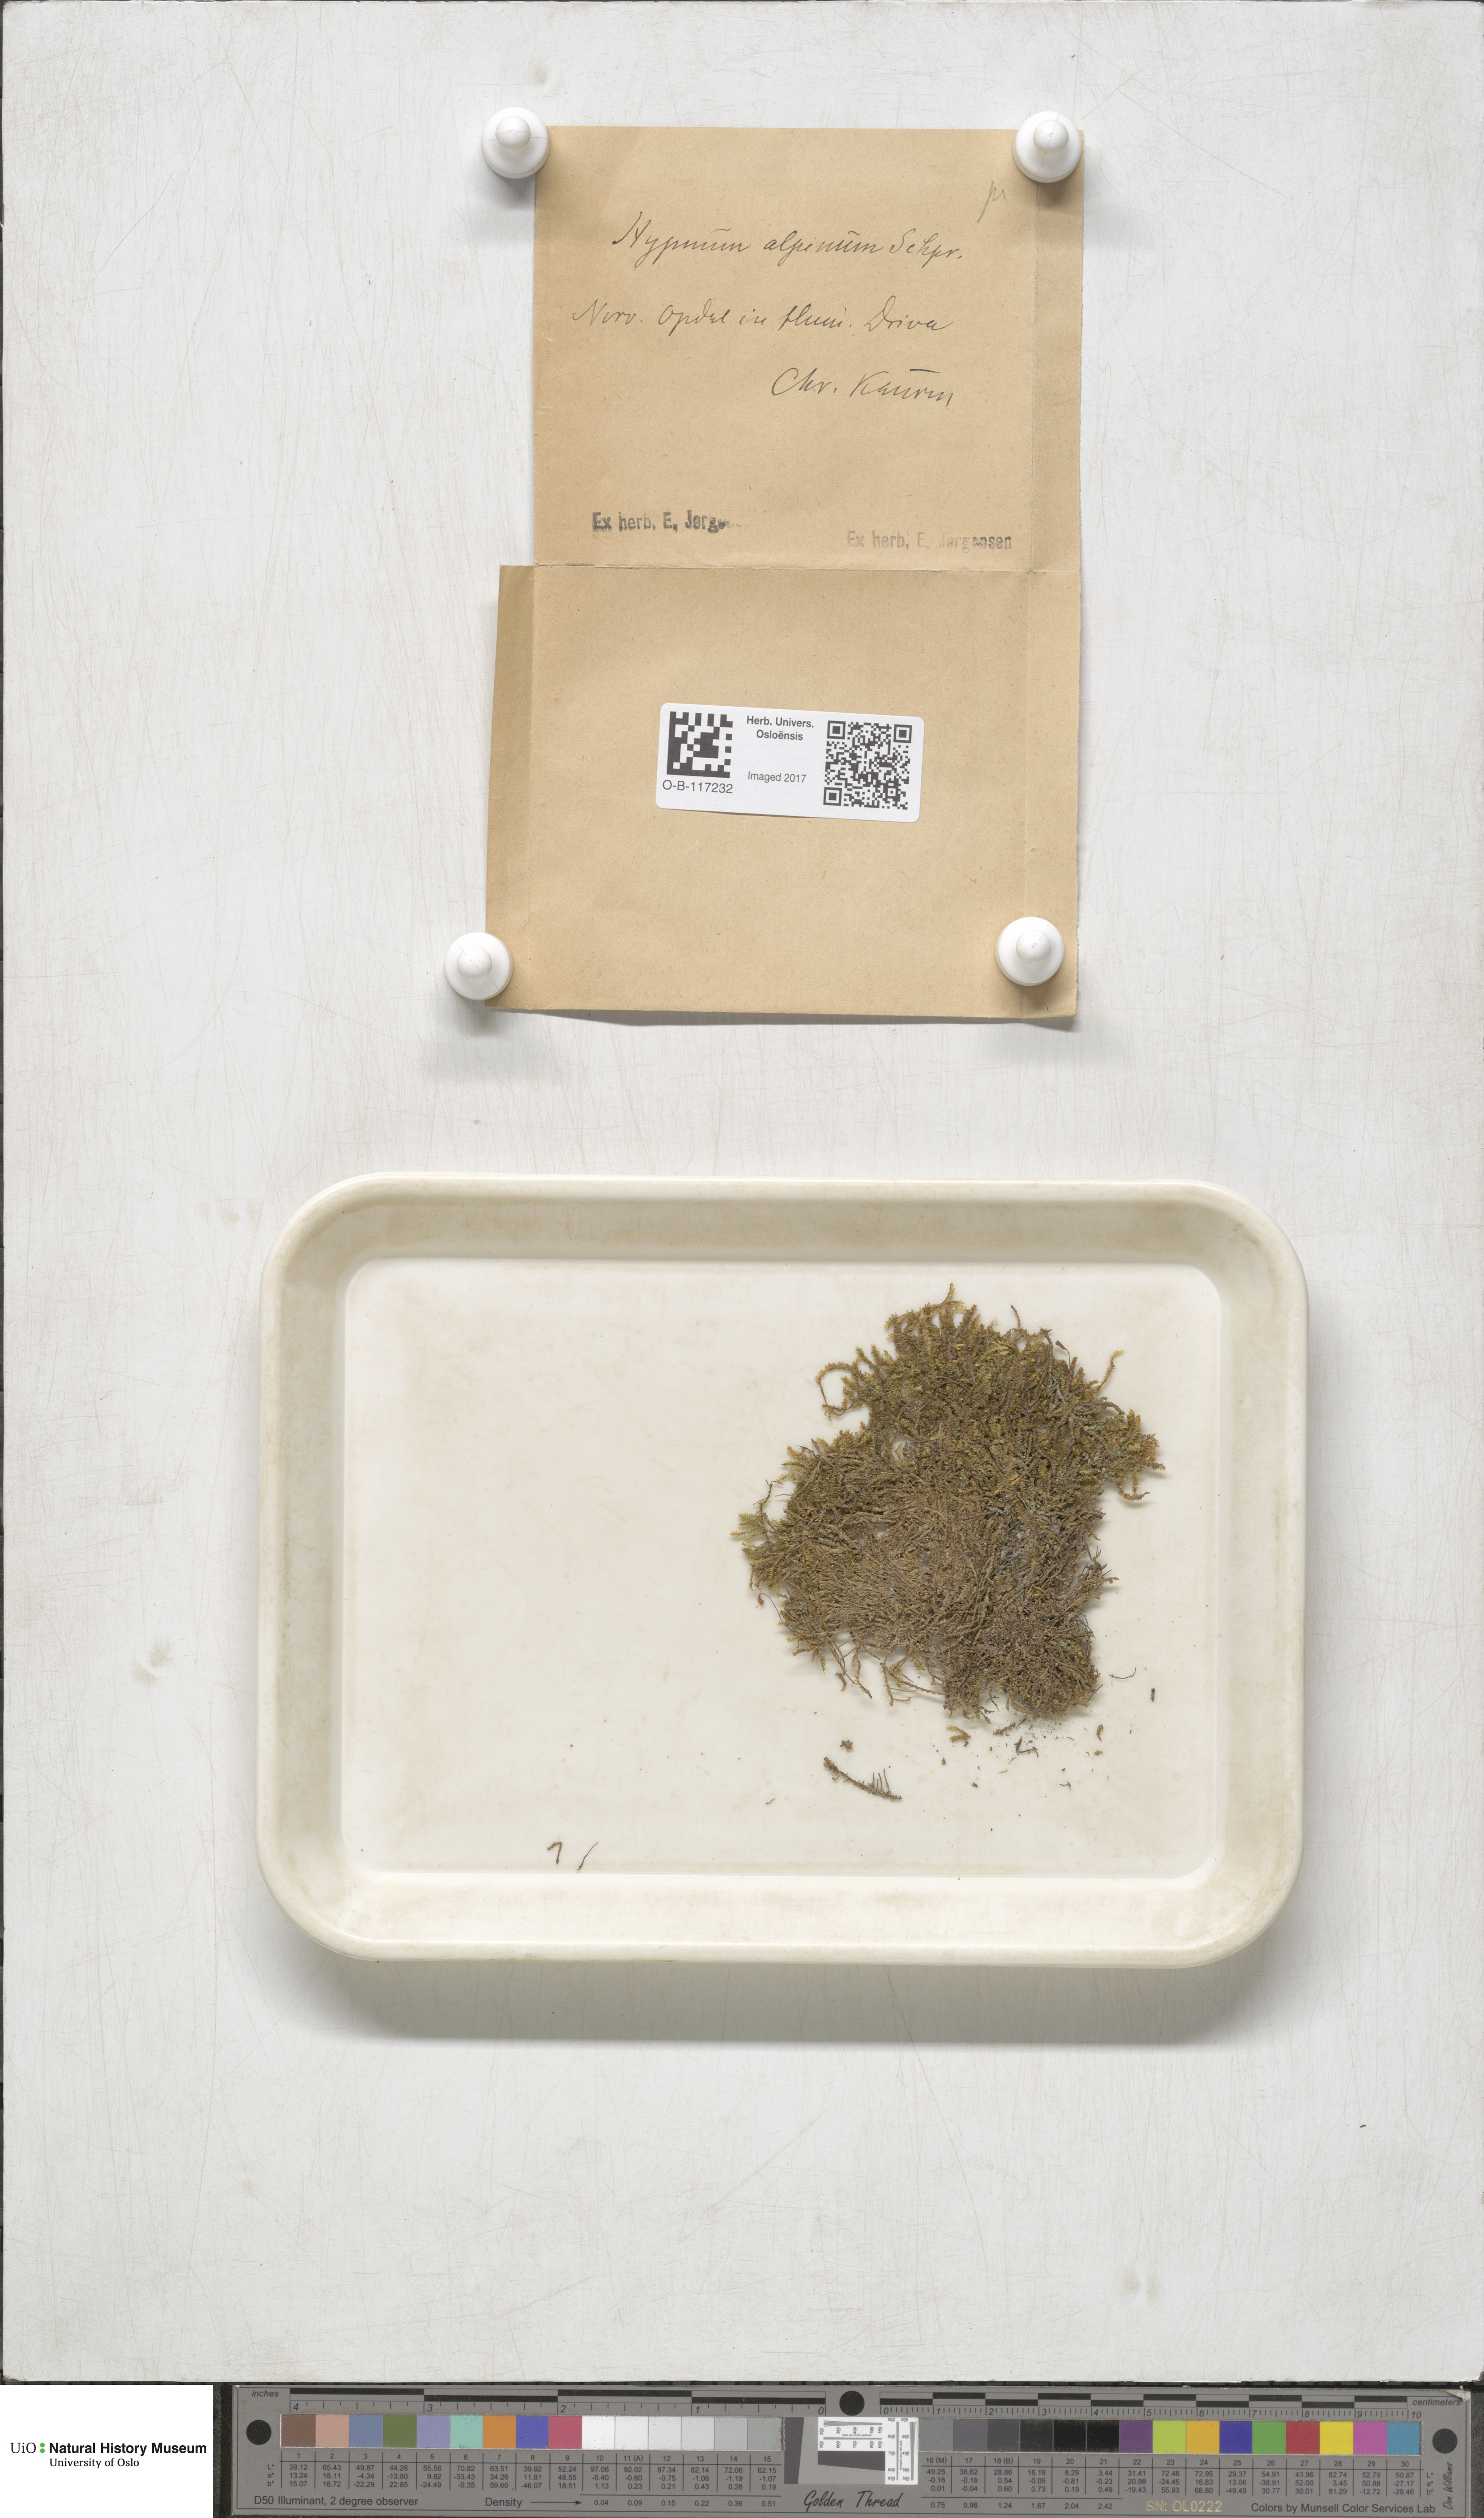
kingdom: Plantae
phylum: Bryophyta
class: Bryopsida
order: Hypnales
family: Amblystegiaceae
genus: Platyhypnum
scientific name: Platyhypnum alpestre
